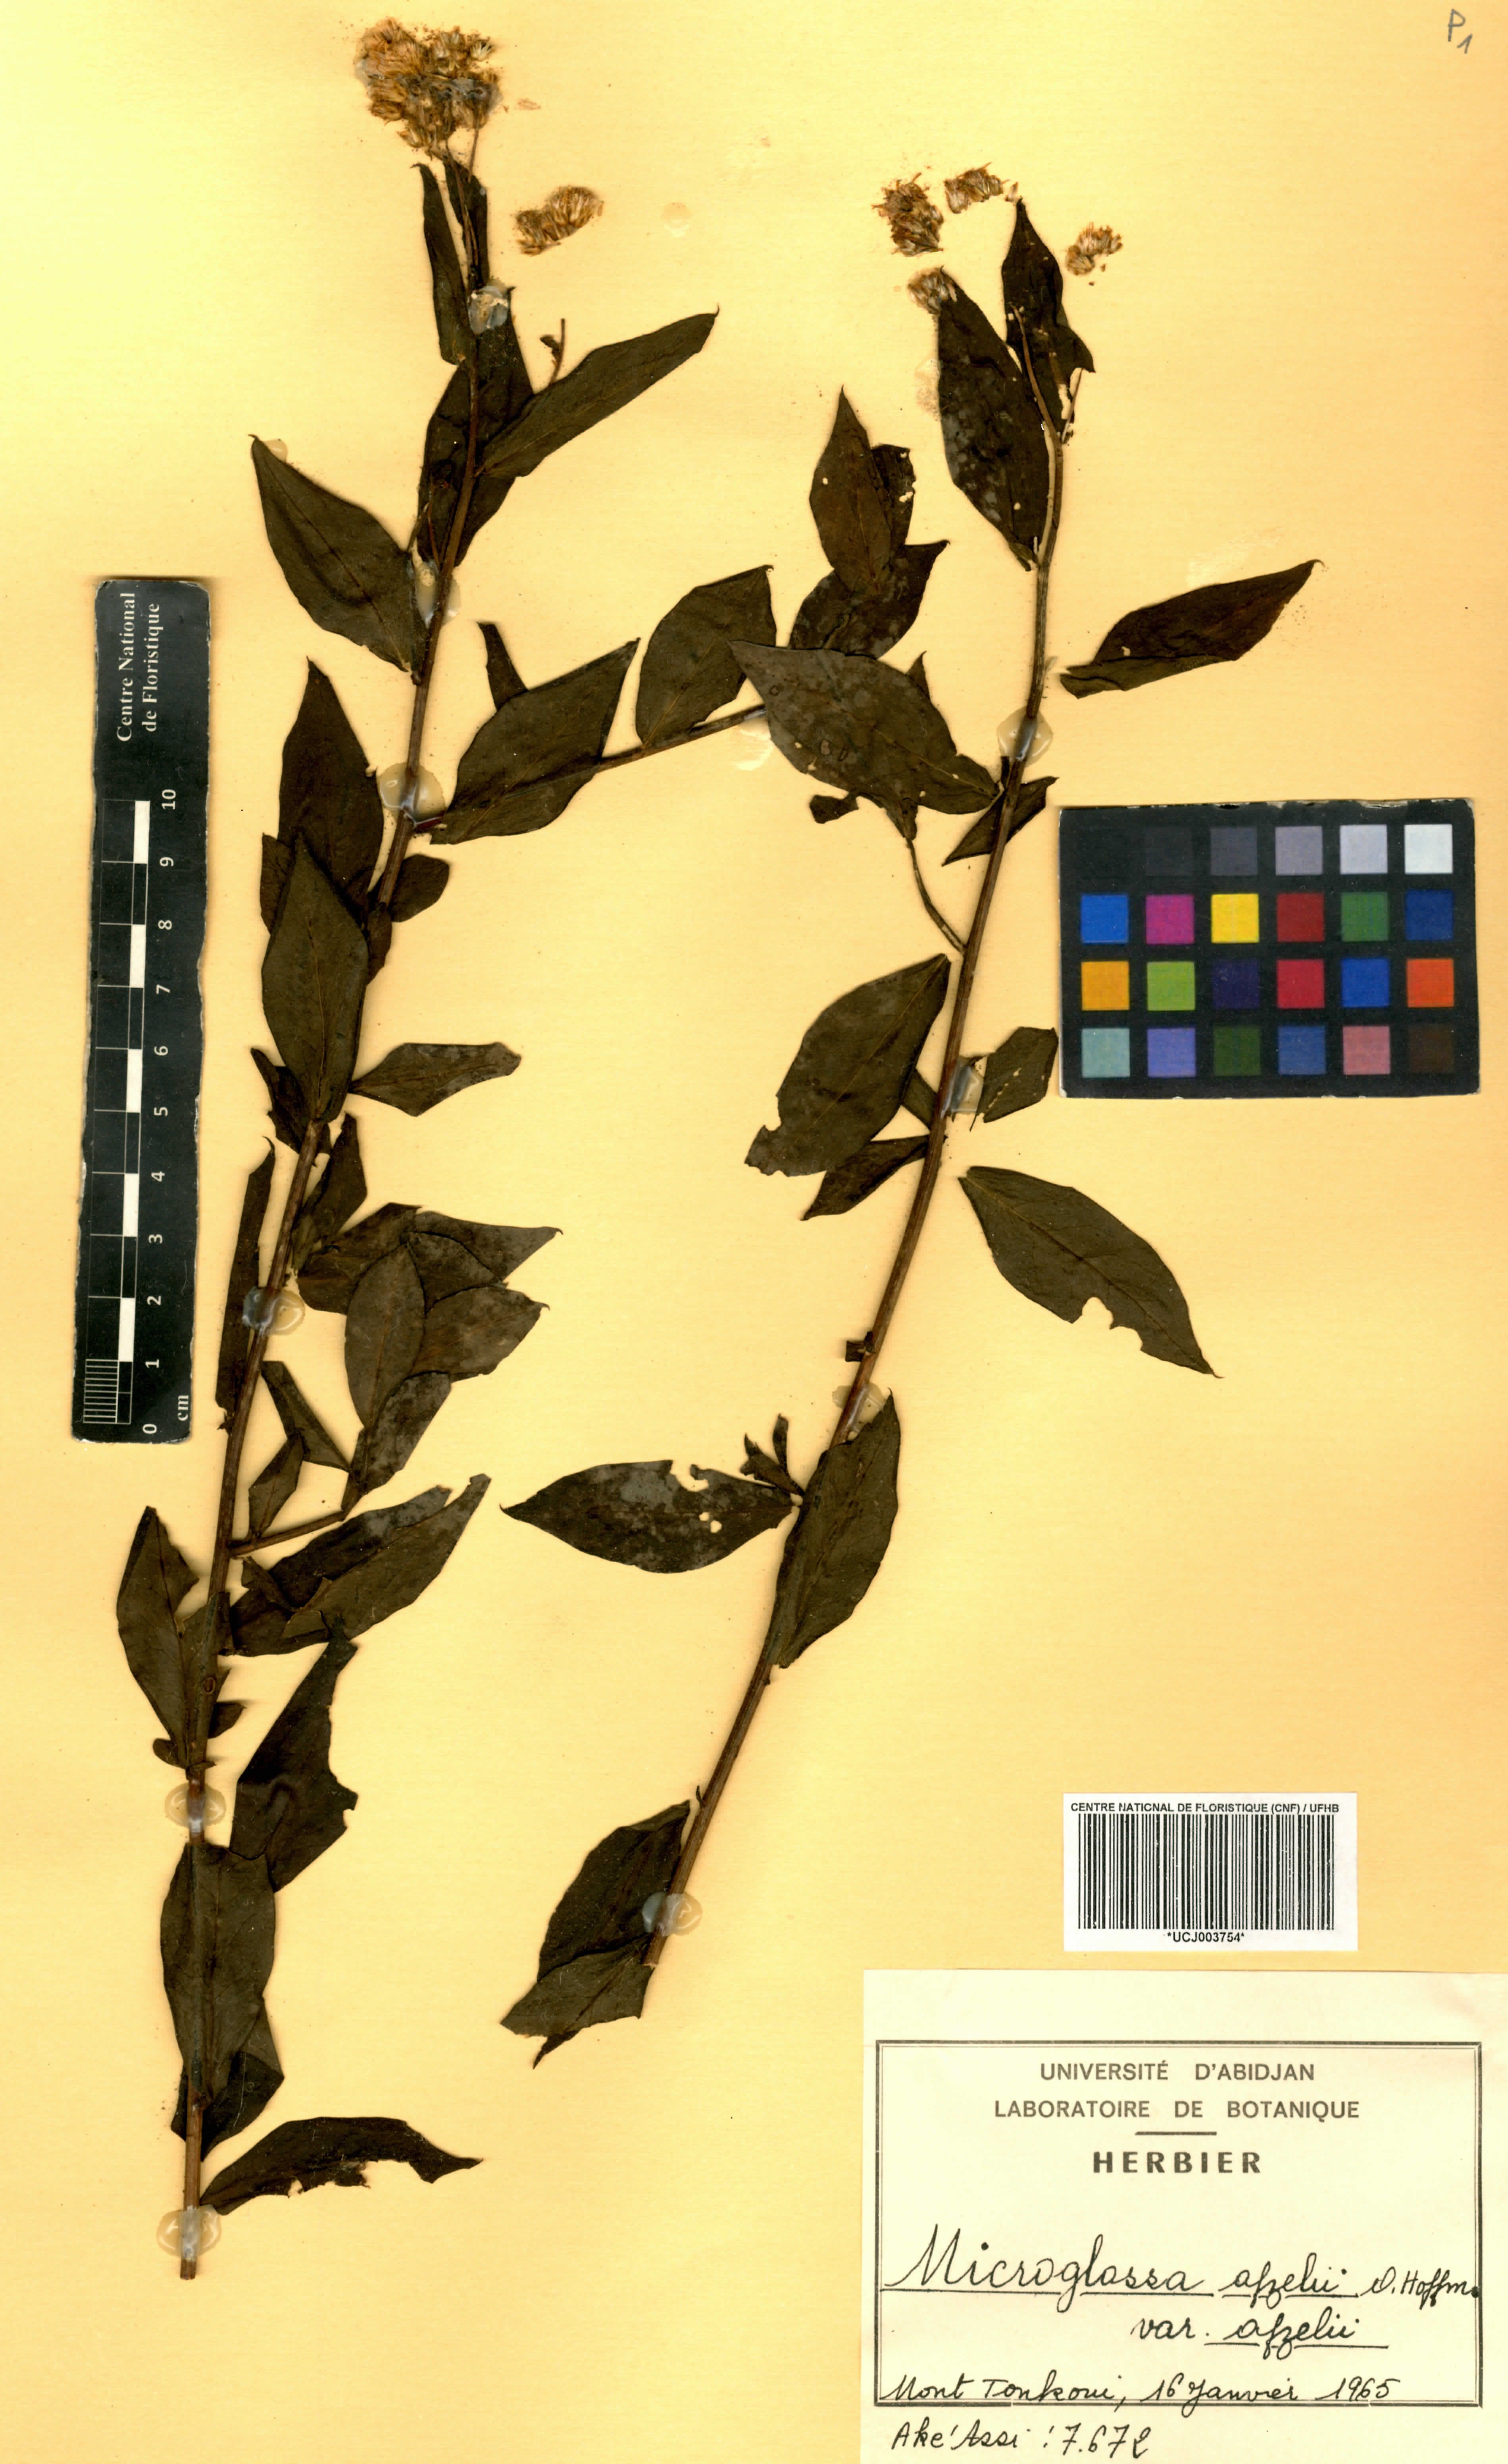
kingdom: Plantae
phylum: Tracheophyta
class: Magnoliopsida
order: Asterales
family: Asteraceae
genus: Microglossa
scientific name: Microglossa afzelii
